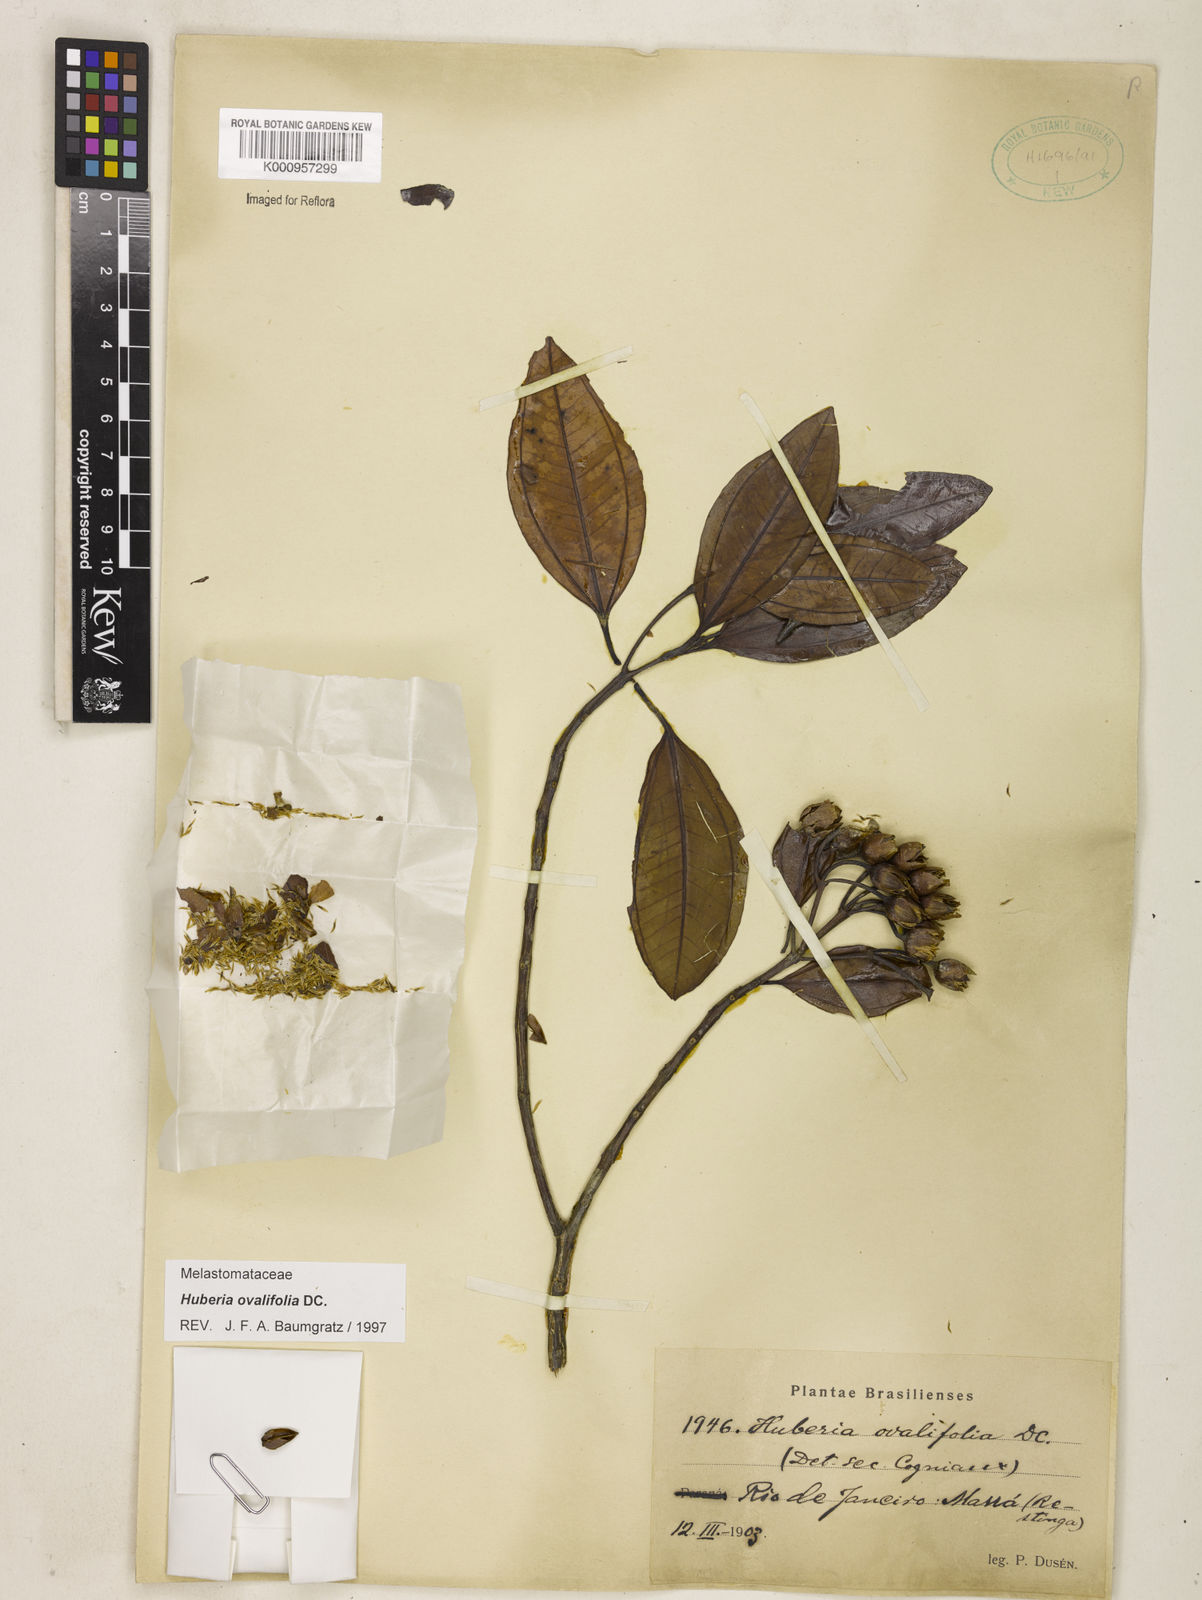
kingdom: Plantae
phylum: Tracheophyta
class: Magnoliopsida
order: Myrtales
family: Melastomataceae
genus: Huberia
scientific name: Huberia ovalifolia
